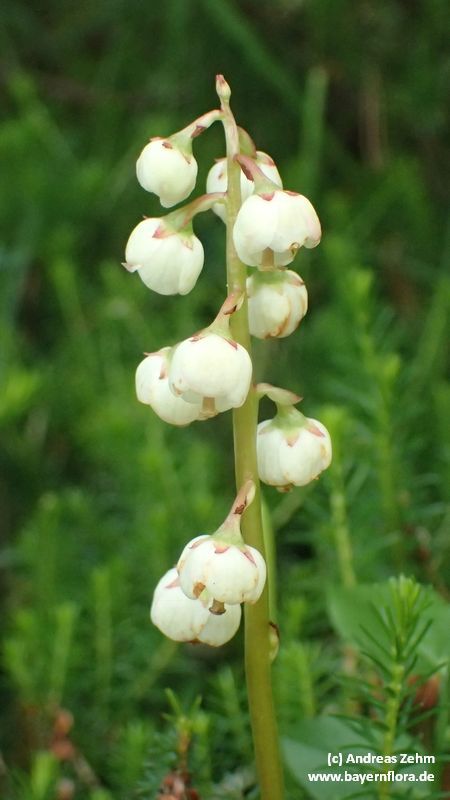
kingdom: Plantae
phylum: Tracheophyta
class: Magnoliopsida
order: Ericales
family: Ericaceae
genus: Pyrola
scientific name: Pyrola media
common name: Intermediate wintergreen
